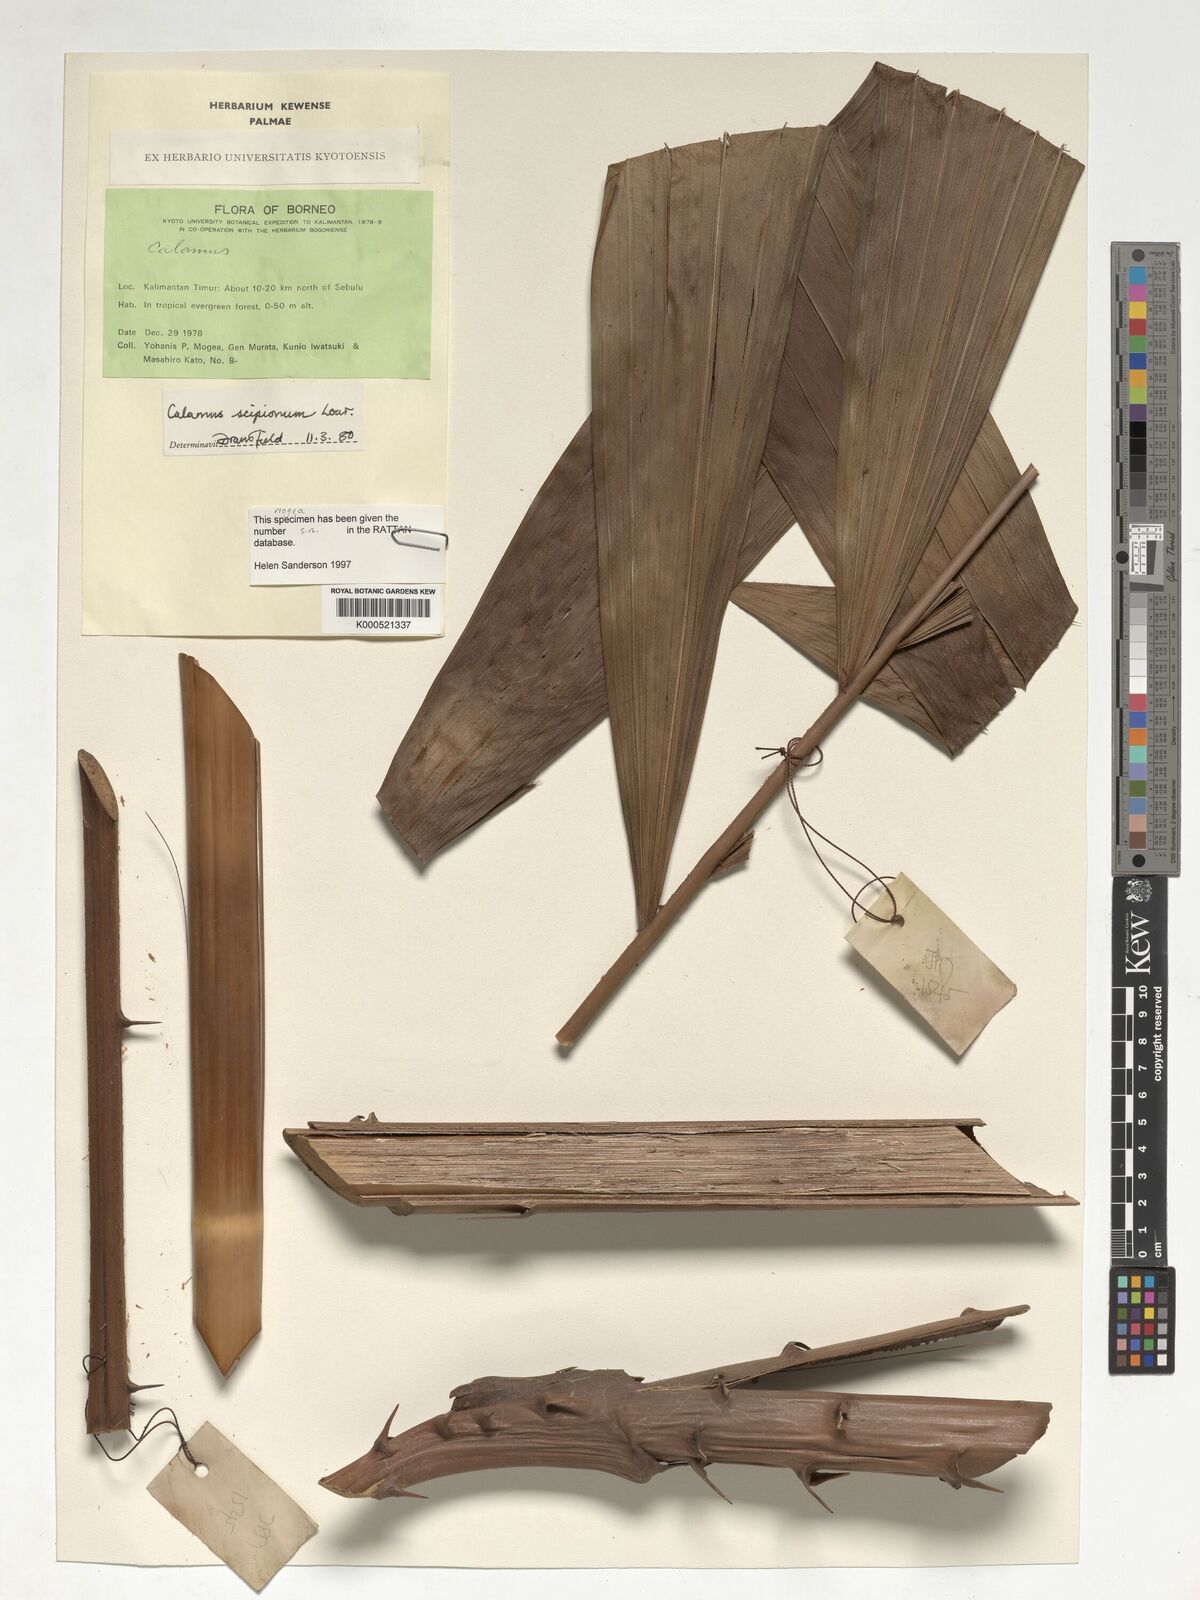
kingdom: Plantae
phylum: Tracheophyta
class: Liliopsida
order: Arecales
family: Arecaceae
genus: Calamus
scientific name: Calamus scipionum
